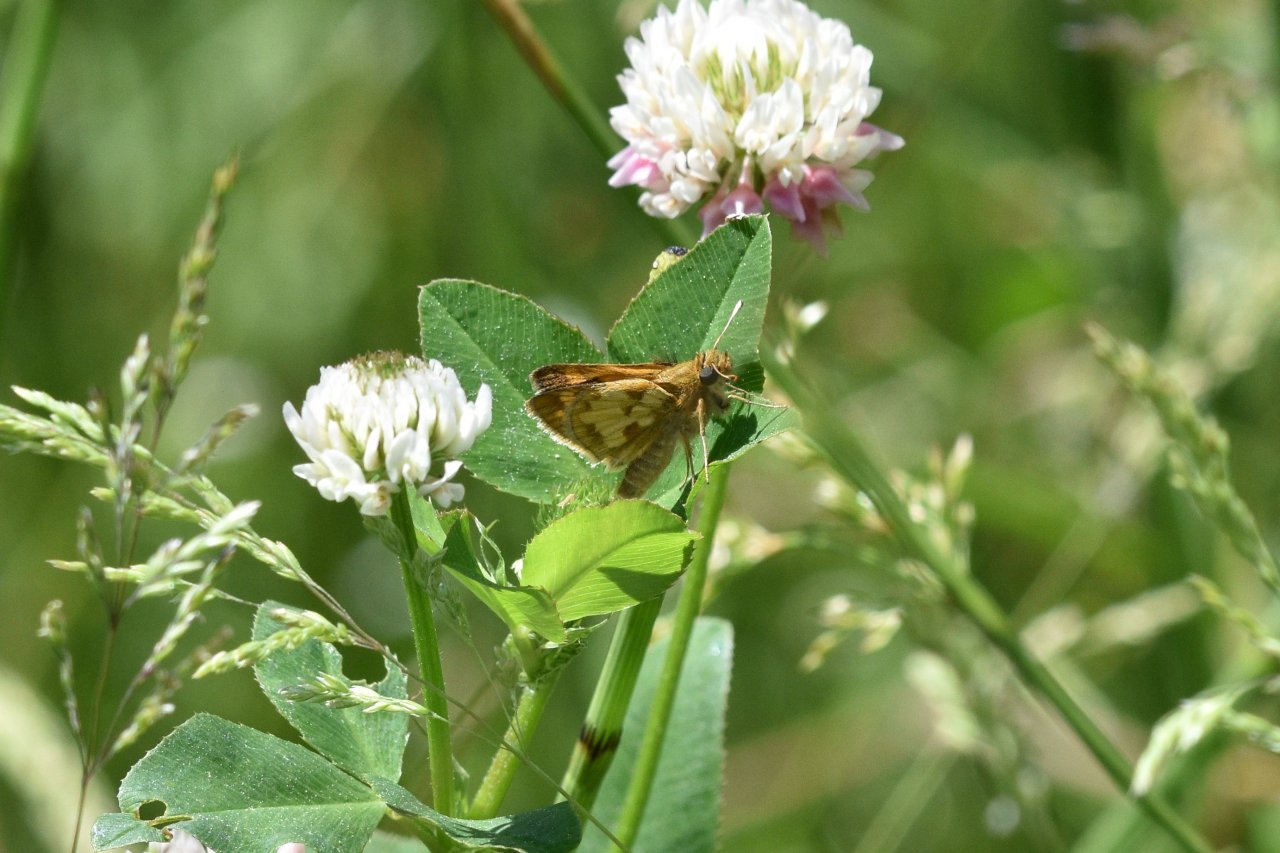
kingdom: Animalia
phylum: Arthropoda
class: Insecta
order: Lepidoptera
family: Hesperiidae
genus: Polites
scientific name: Polites coras
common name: Peck's Skipper
